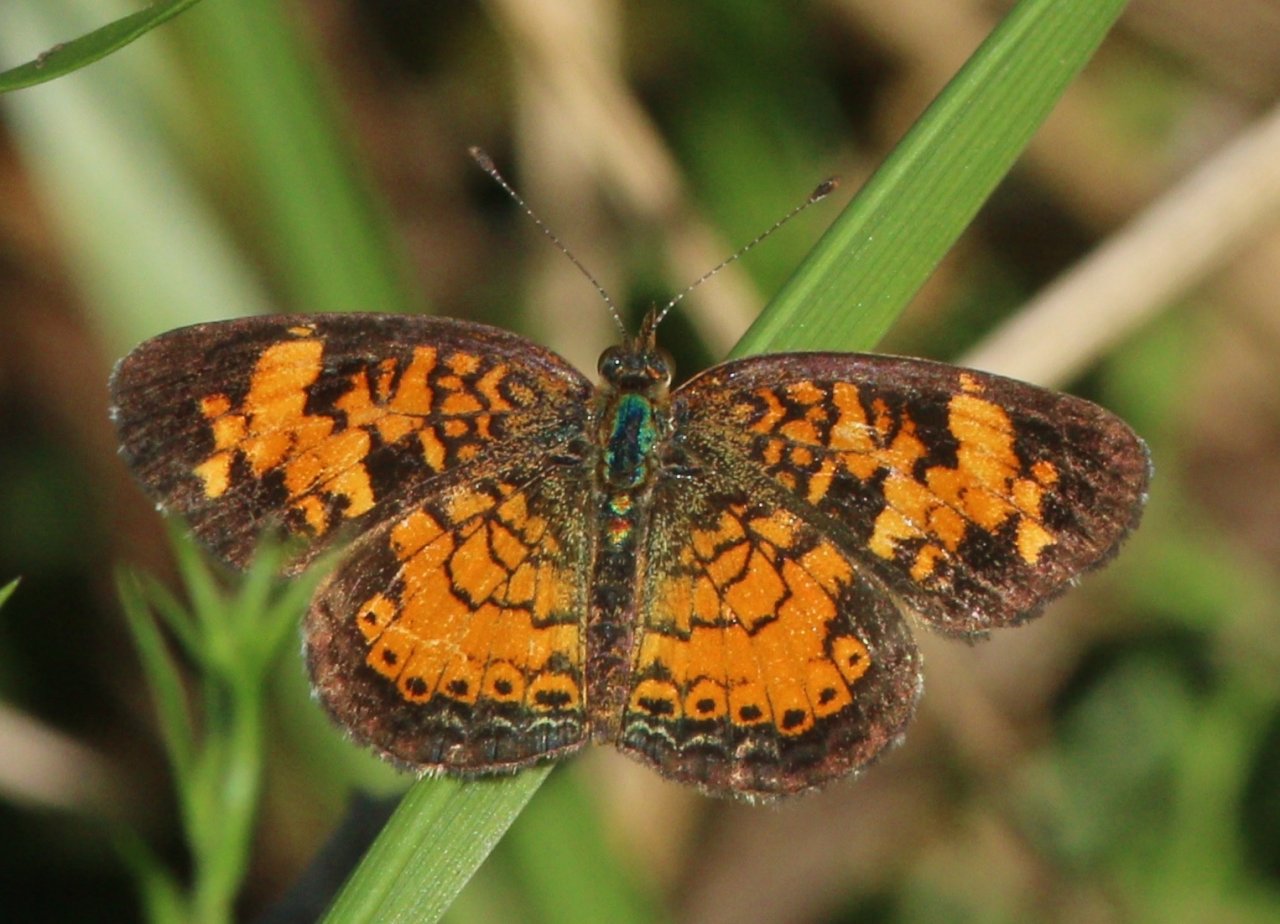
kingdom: Animalia
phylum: Arthropoda
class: Insecta
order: Lepidoptera
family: Nymphalidae
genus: Phyciodes
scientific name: Phyciodes tharos
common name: Pearl Crescent
